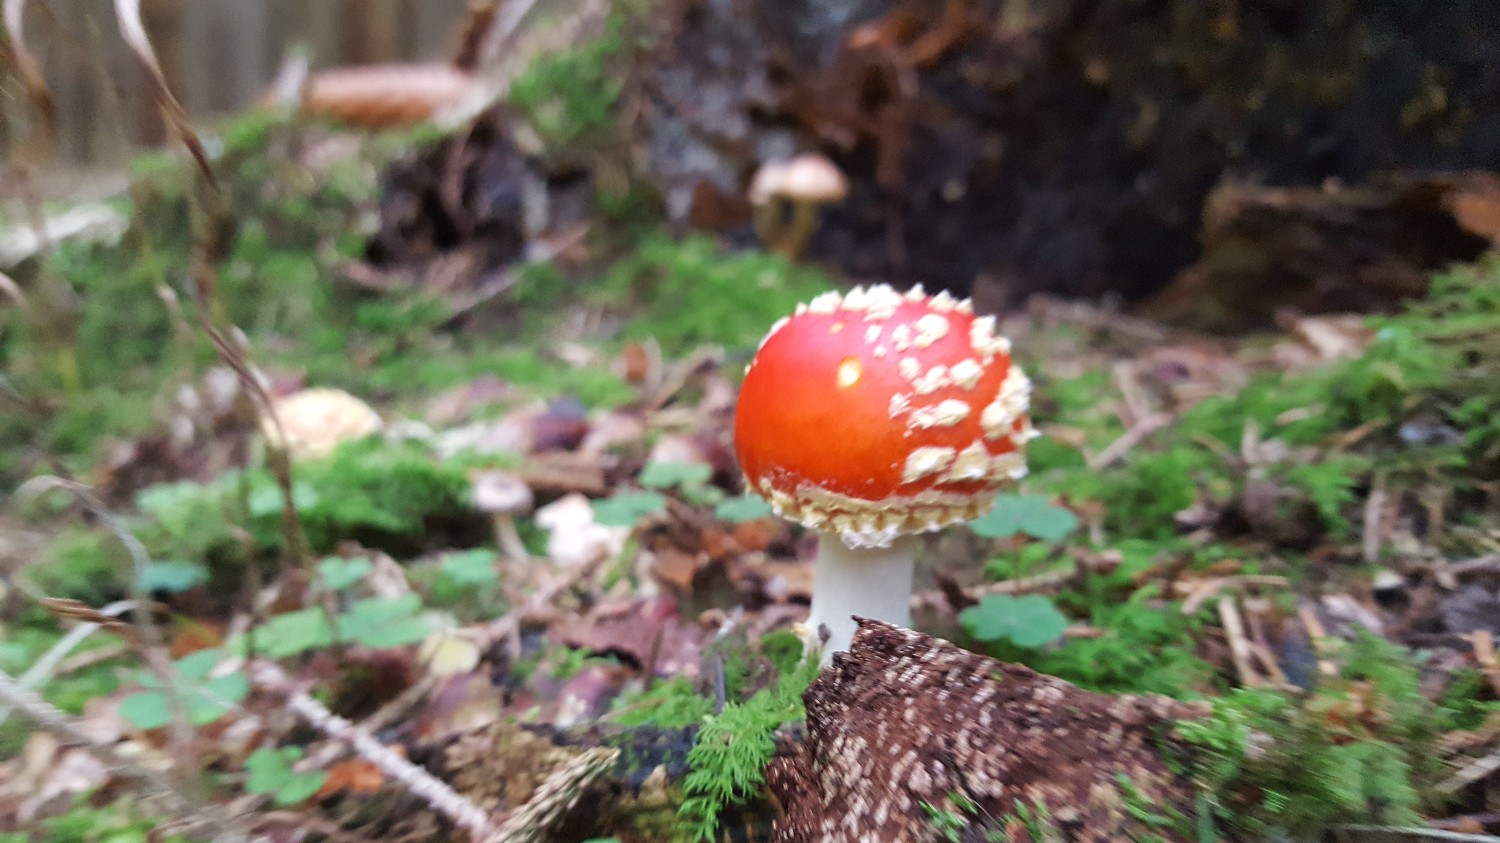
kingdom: Fungi
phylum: Basidiomycota
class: Agaricomycetes
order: Agaricales
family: Amanitaceae
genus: Amanita
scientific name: Amanita muscaria
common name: rød fluesvamp
